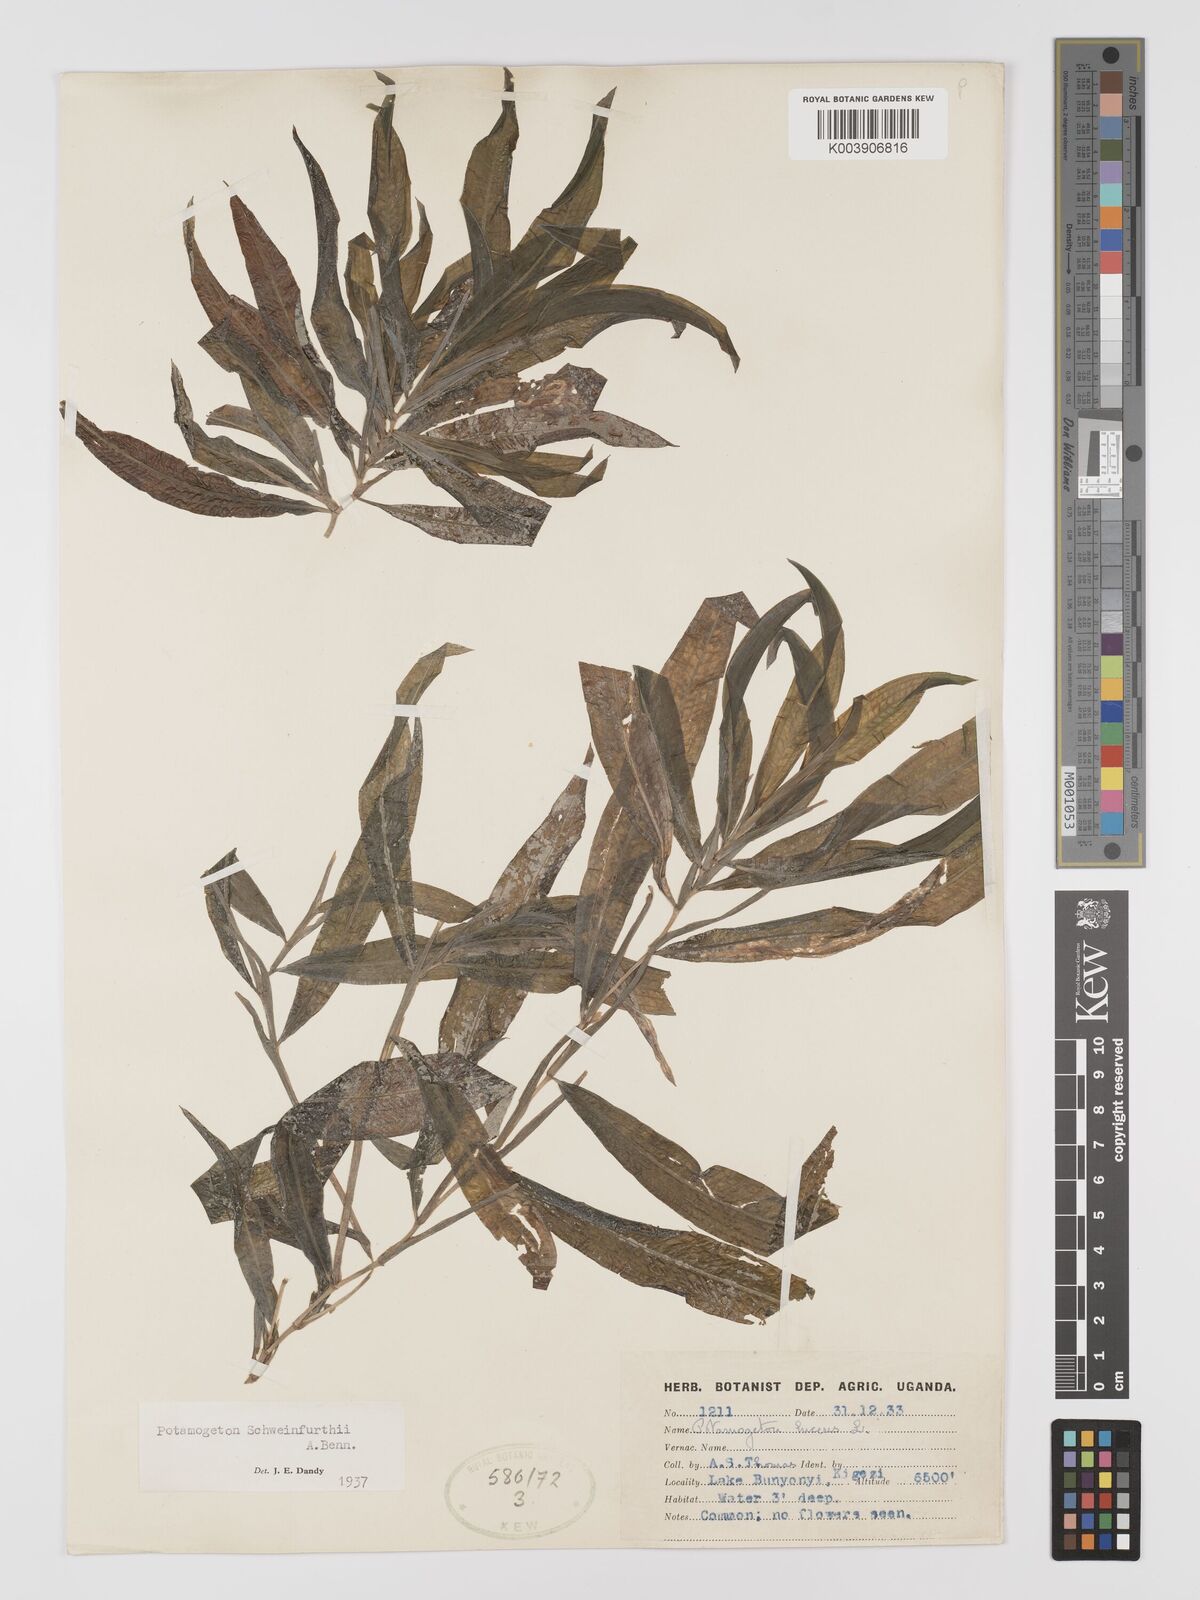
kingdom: Plantae
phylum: Tracheophyta
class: Liliopsida
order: Alismatales
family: Potamogetonaceae
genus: Potamogeton
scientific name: Potamogeton schweinfurthii
